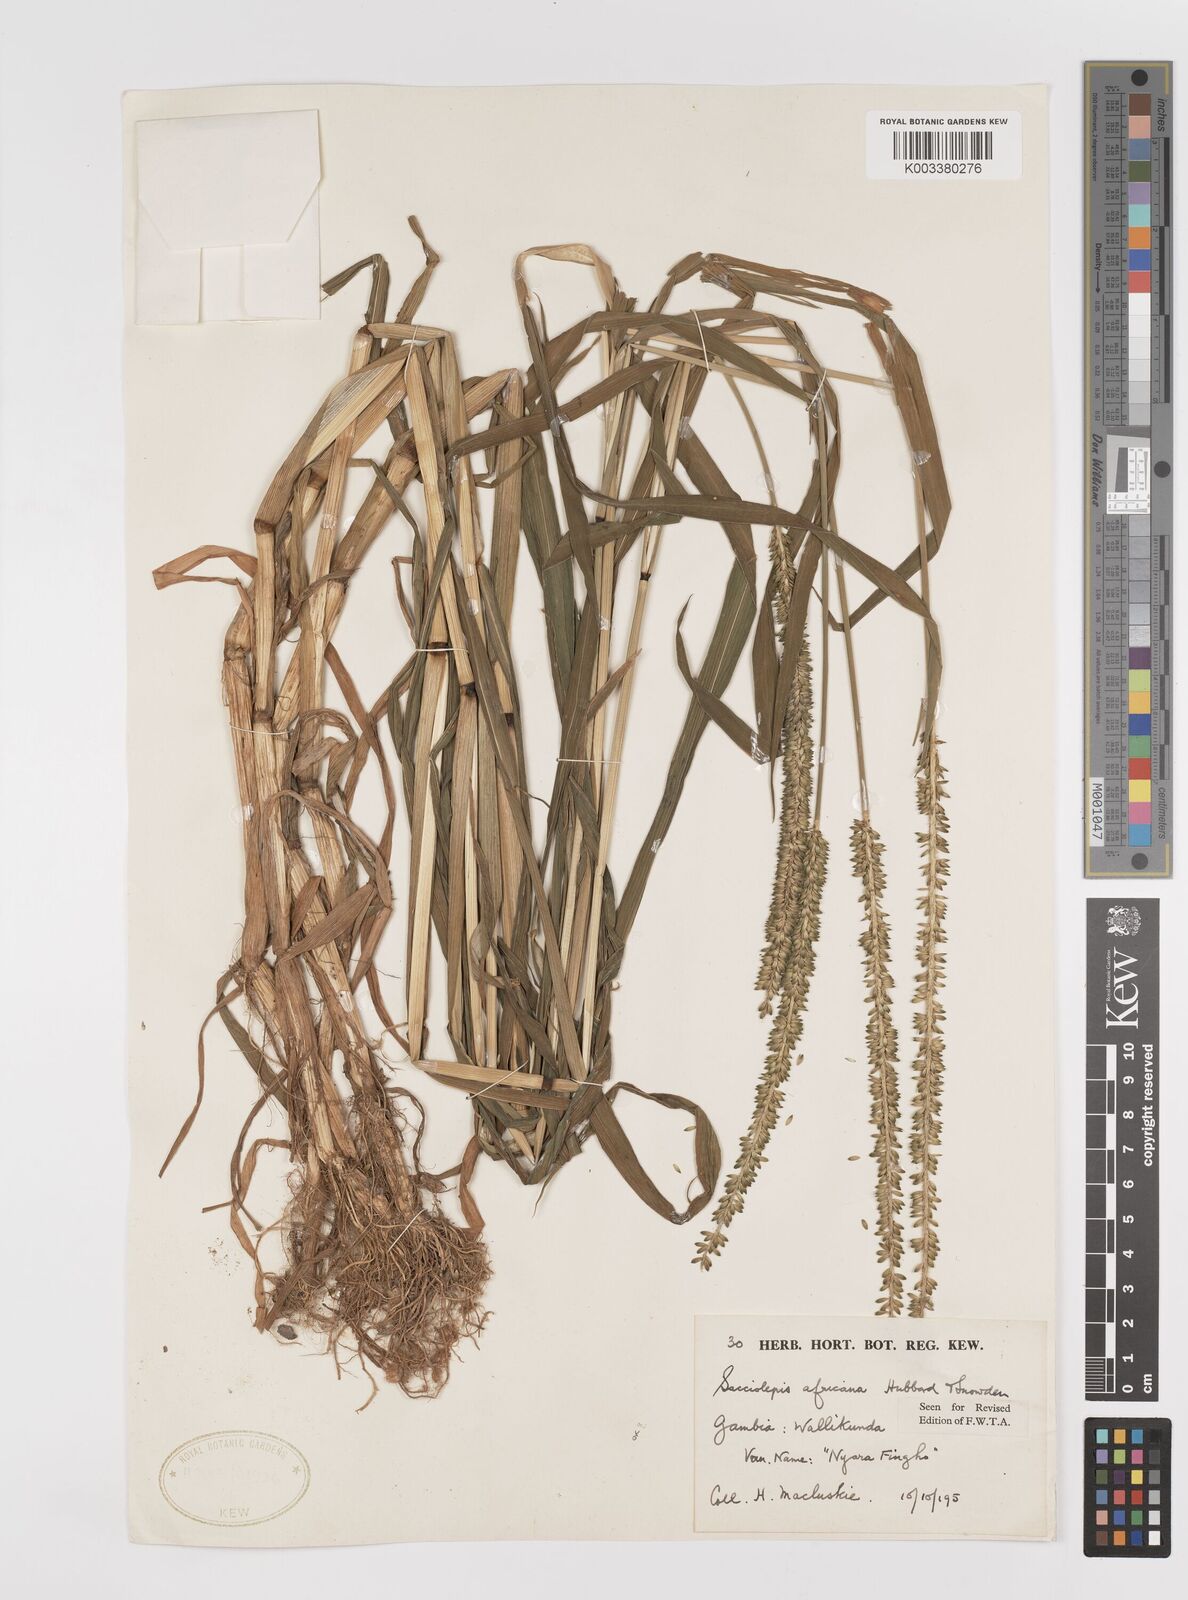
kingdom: Plantae
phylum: Tracheophyta
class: Liliopsida
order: Poales
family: Poaceae
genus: Sacciolepis
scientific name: Sacciolepis africana
